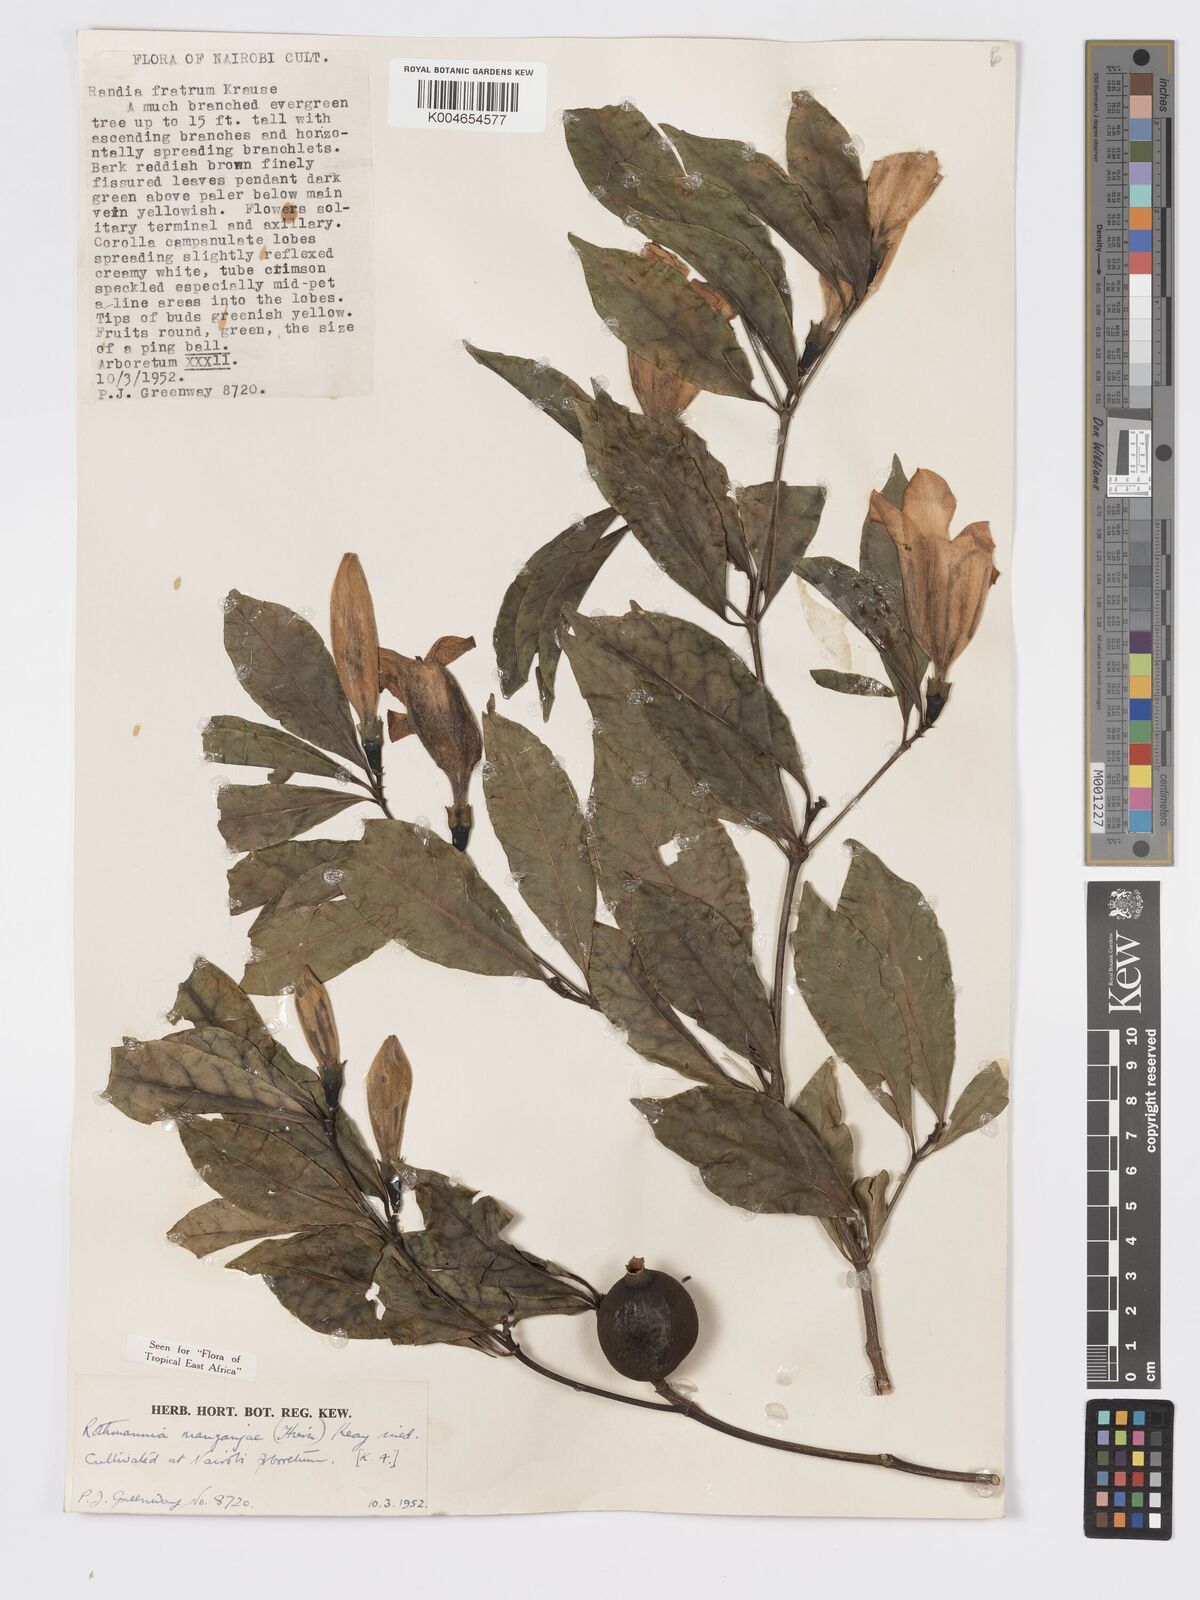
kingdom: Plantae
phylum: Tracheophyta
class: Magnoliopsida
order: Gentianales
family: Rubiaceae
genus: Rothmannia
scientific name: Rothmannia manganjae
